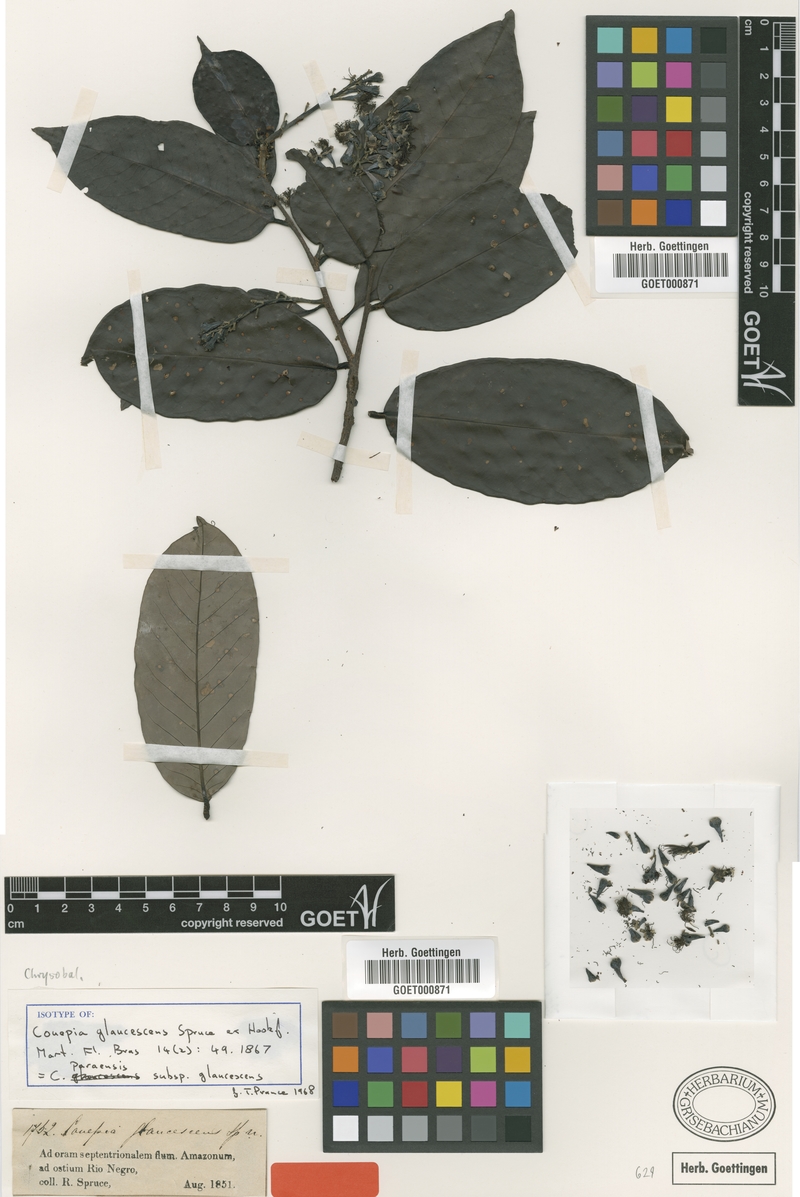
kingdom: Plantae
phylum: Tracheophyta
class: Magnoliopsida
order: Malpighiales
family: Chrysobalanaceae
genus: Couepia
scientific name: Couepia paraensis
